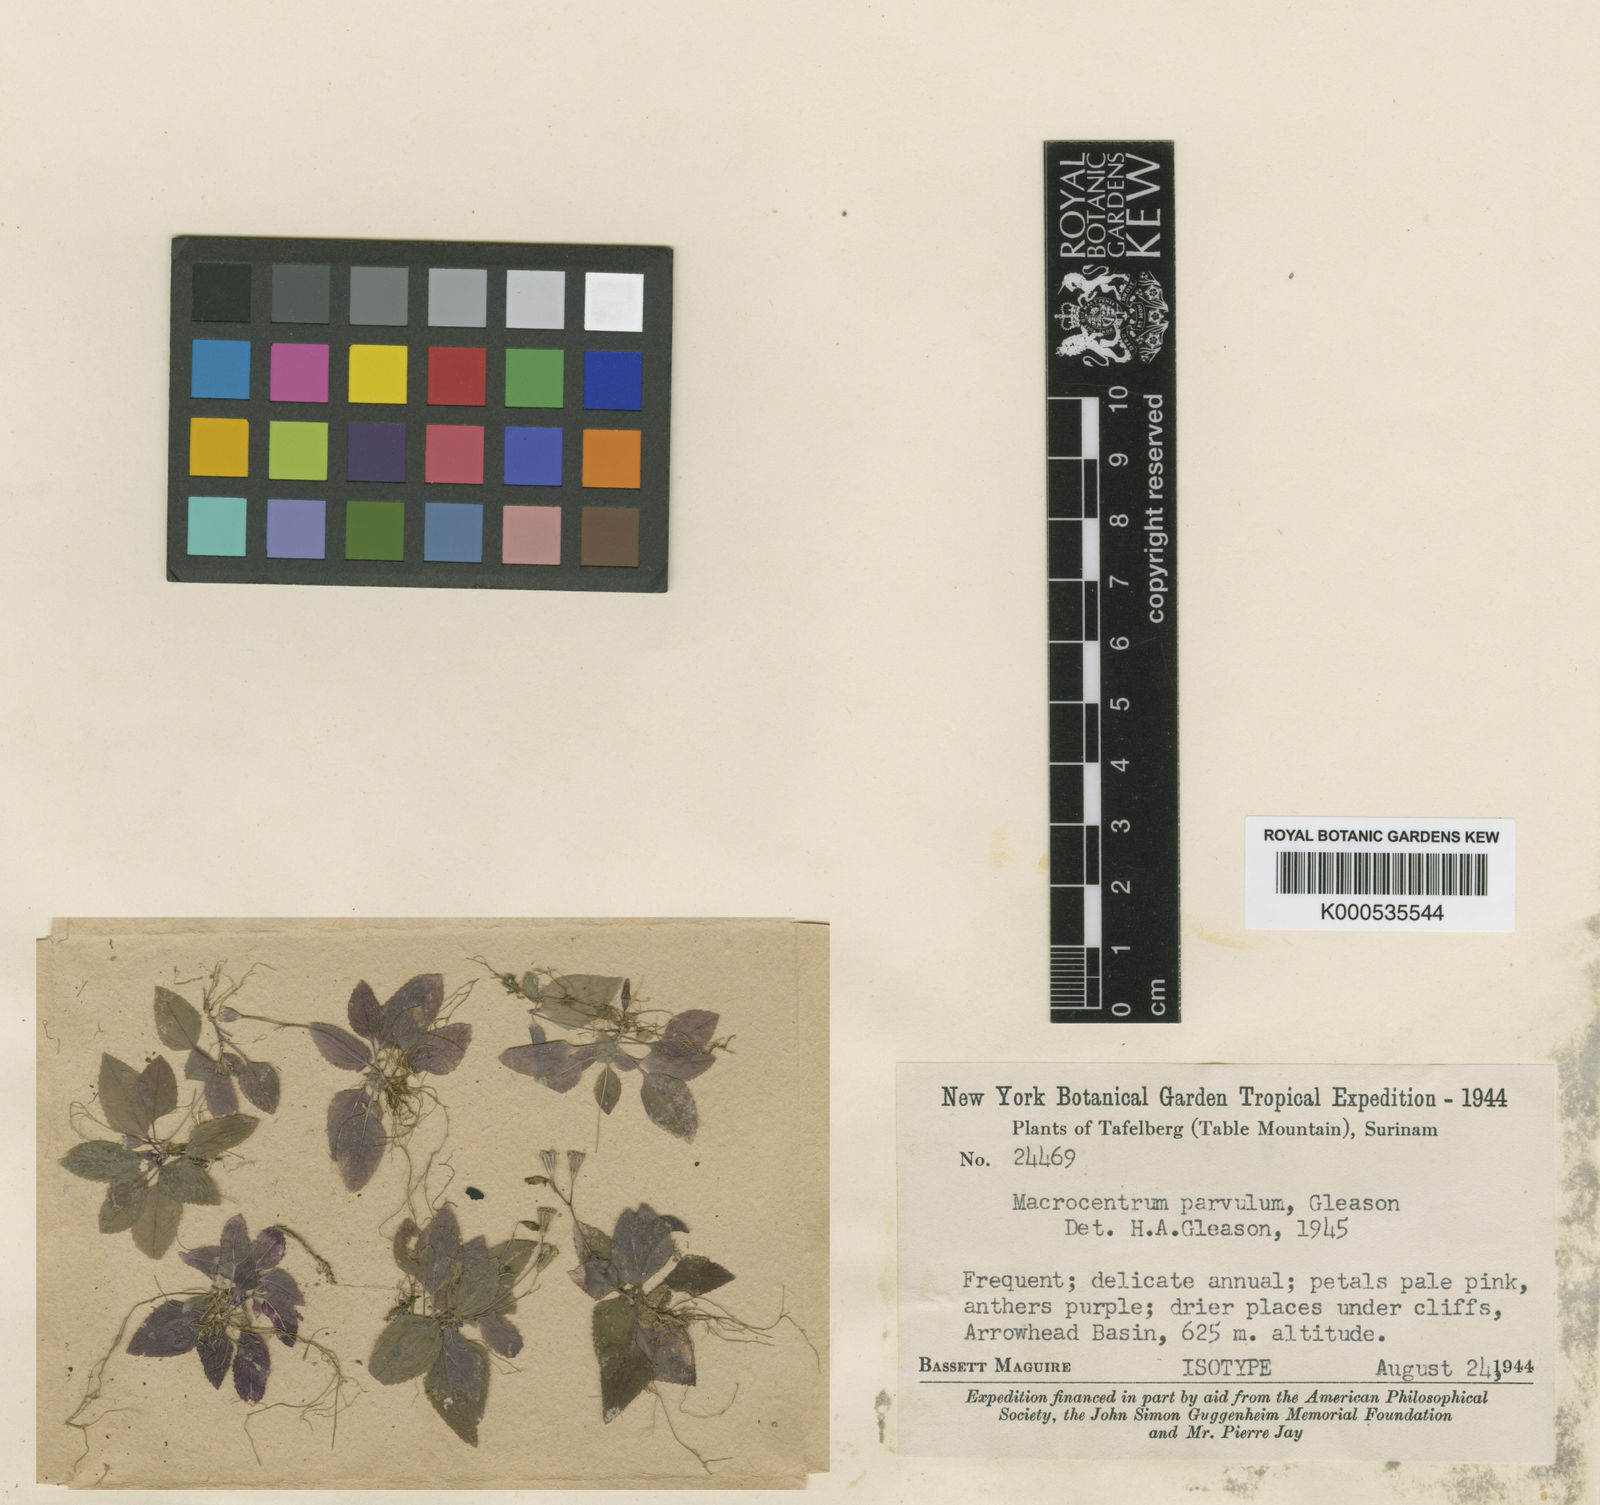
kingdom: Plantae
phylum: Tracheophyta
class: Magnoliopsida
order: Myrtales
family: Melastomataceae
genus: Macrocentrum
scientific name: Macrocentrum parvulum
